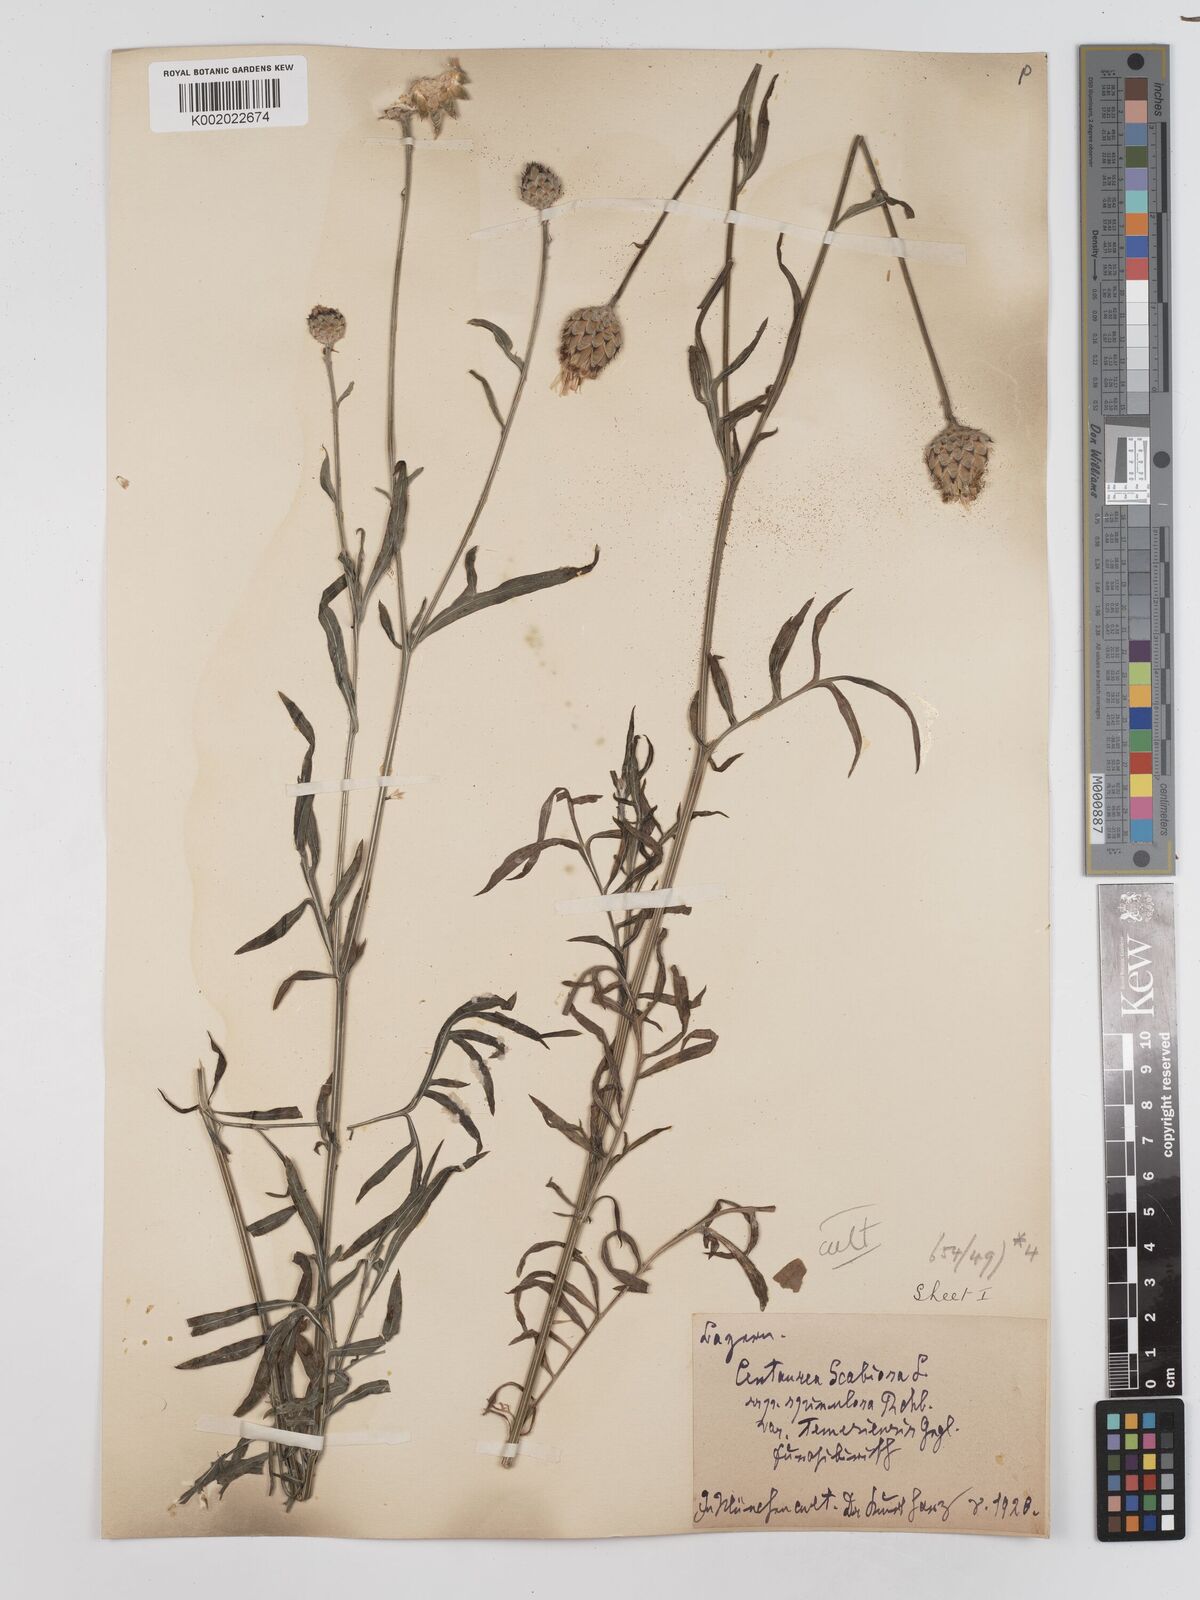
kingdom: Plantae
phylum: Tracheophyta
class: Magnoliopsida
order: Asterales
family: Asteraceae
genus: Centaurea
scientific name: Centaurea apiculata
